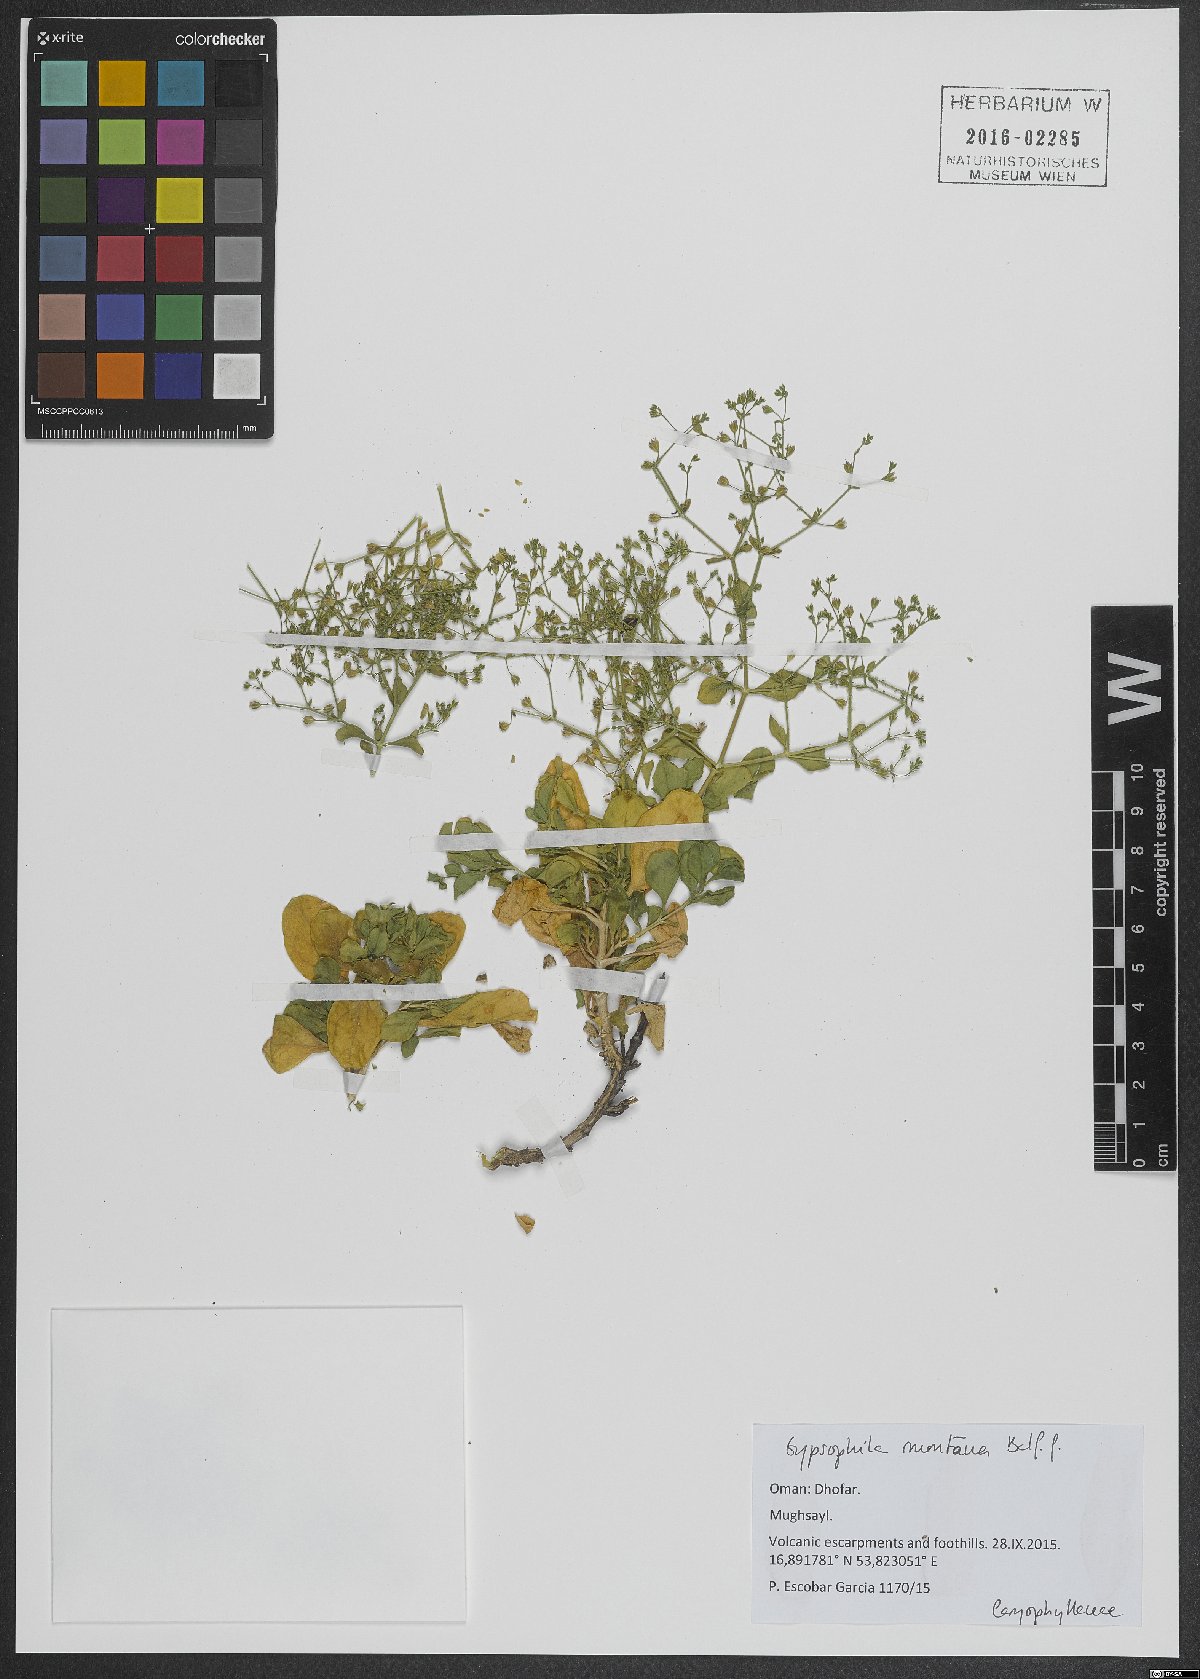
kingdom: Plantae
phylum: Tracheophyta
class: Magnoliopsida
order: Caryophyllales
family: Caryophyllaceae
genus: Petroana
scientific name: Petroana montana
